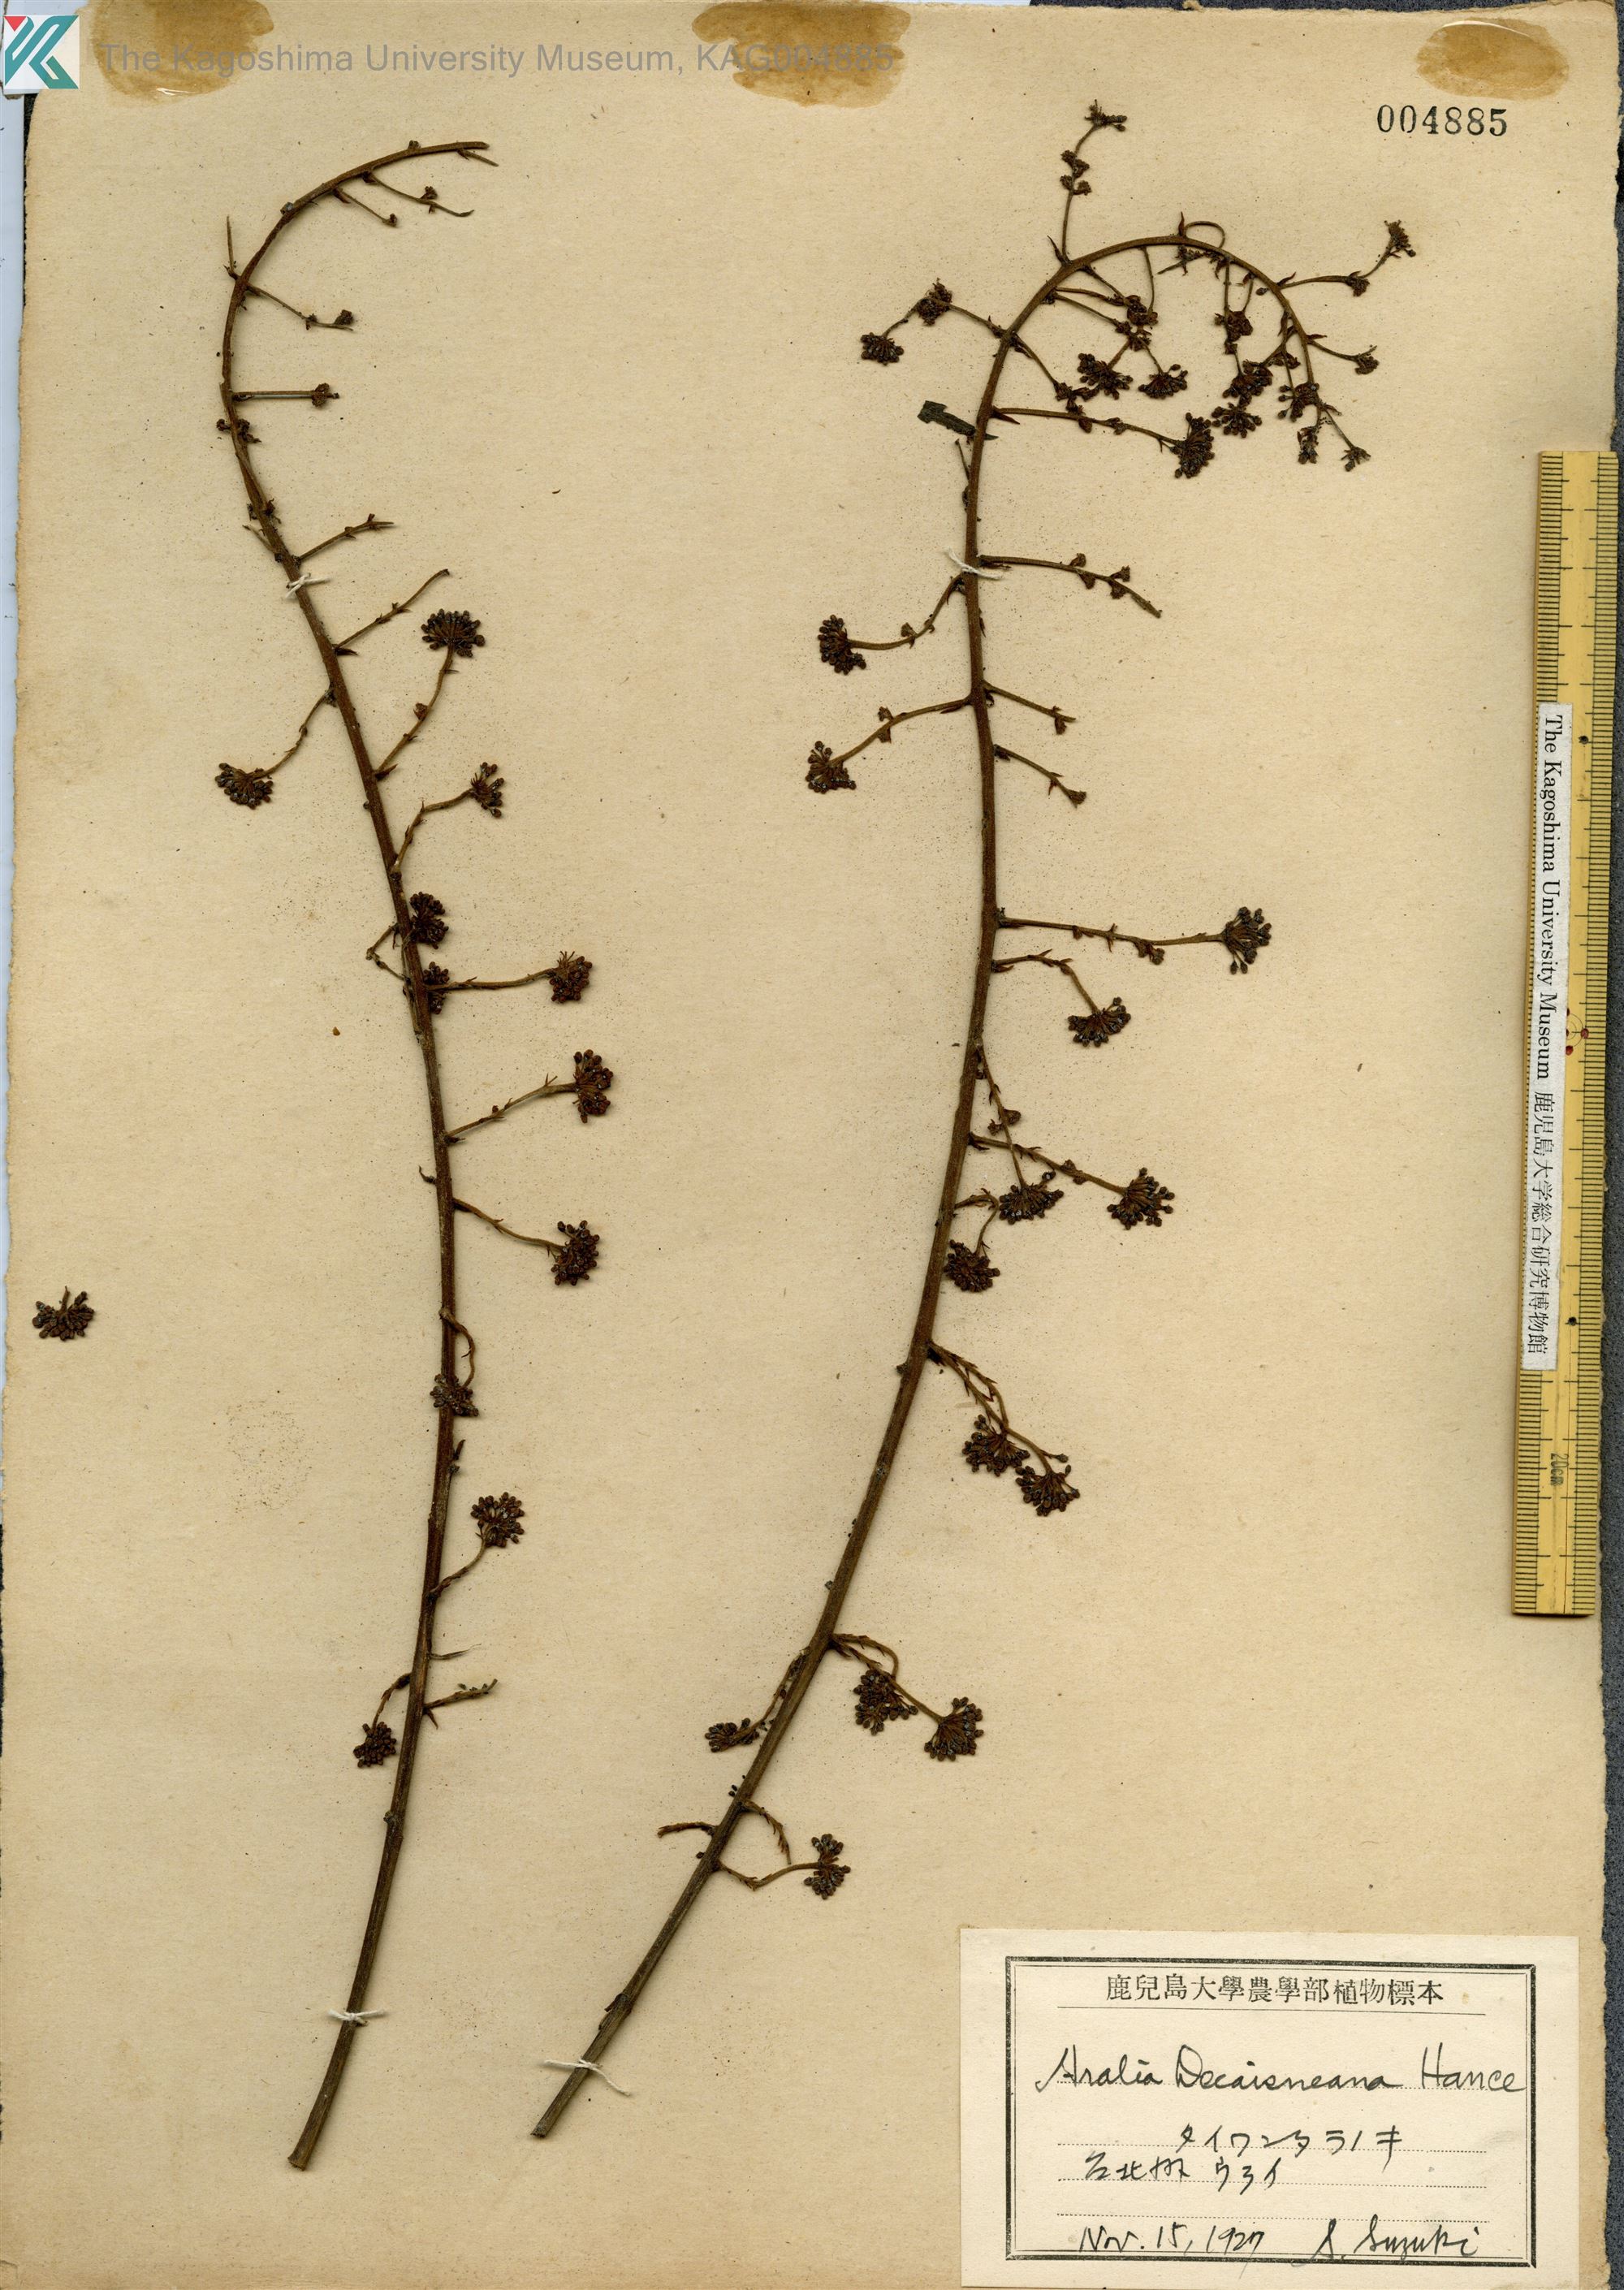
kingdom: Plantae
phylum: Tracheophyta
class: Magnoliopsida
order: Apiales
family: Araliaceae
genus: Aralia
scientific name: Aralia decaisneana
